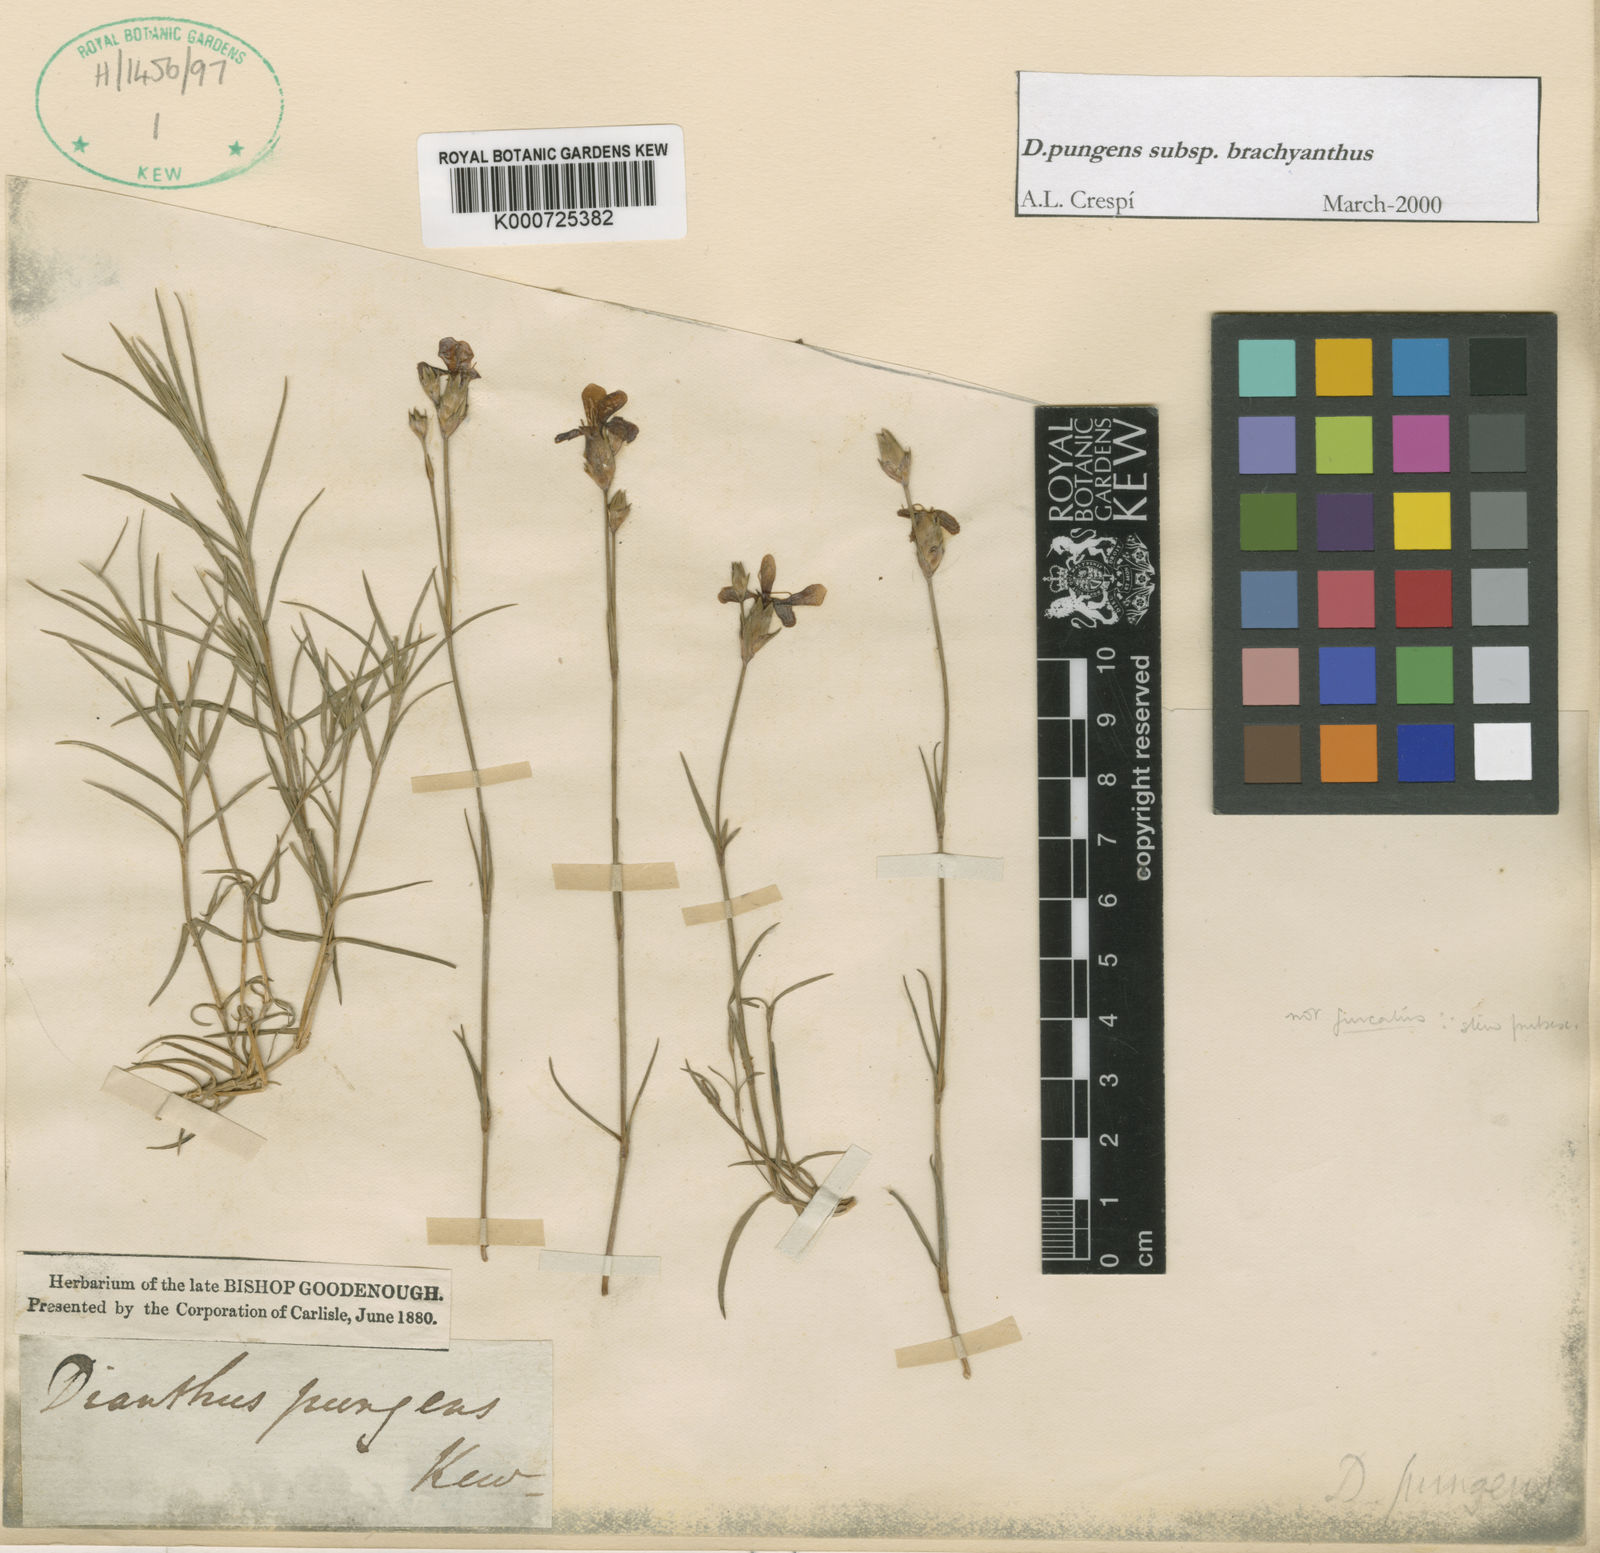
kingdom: Plantae
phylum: Tracheophyta
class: Magnoliopsida
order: Caryophyllales
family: Caryophyllaceae
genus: Dianthus
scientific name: Dianthus pungens
